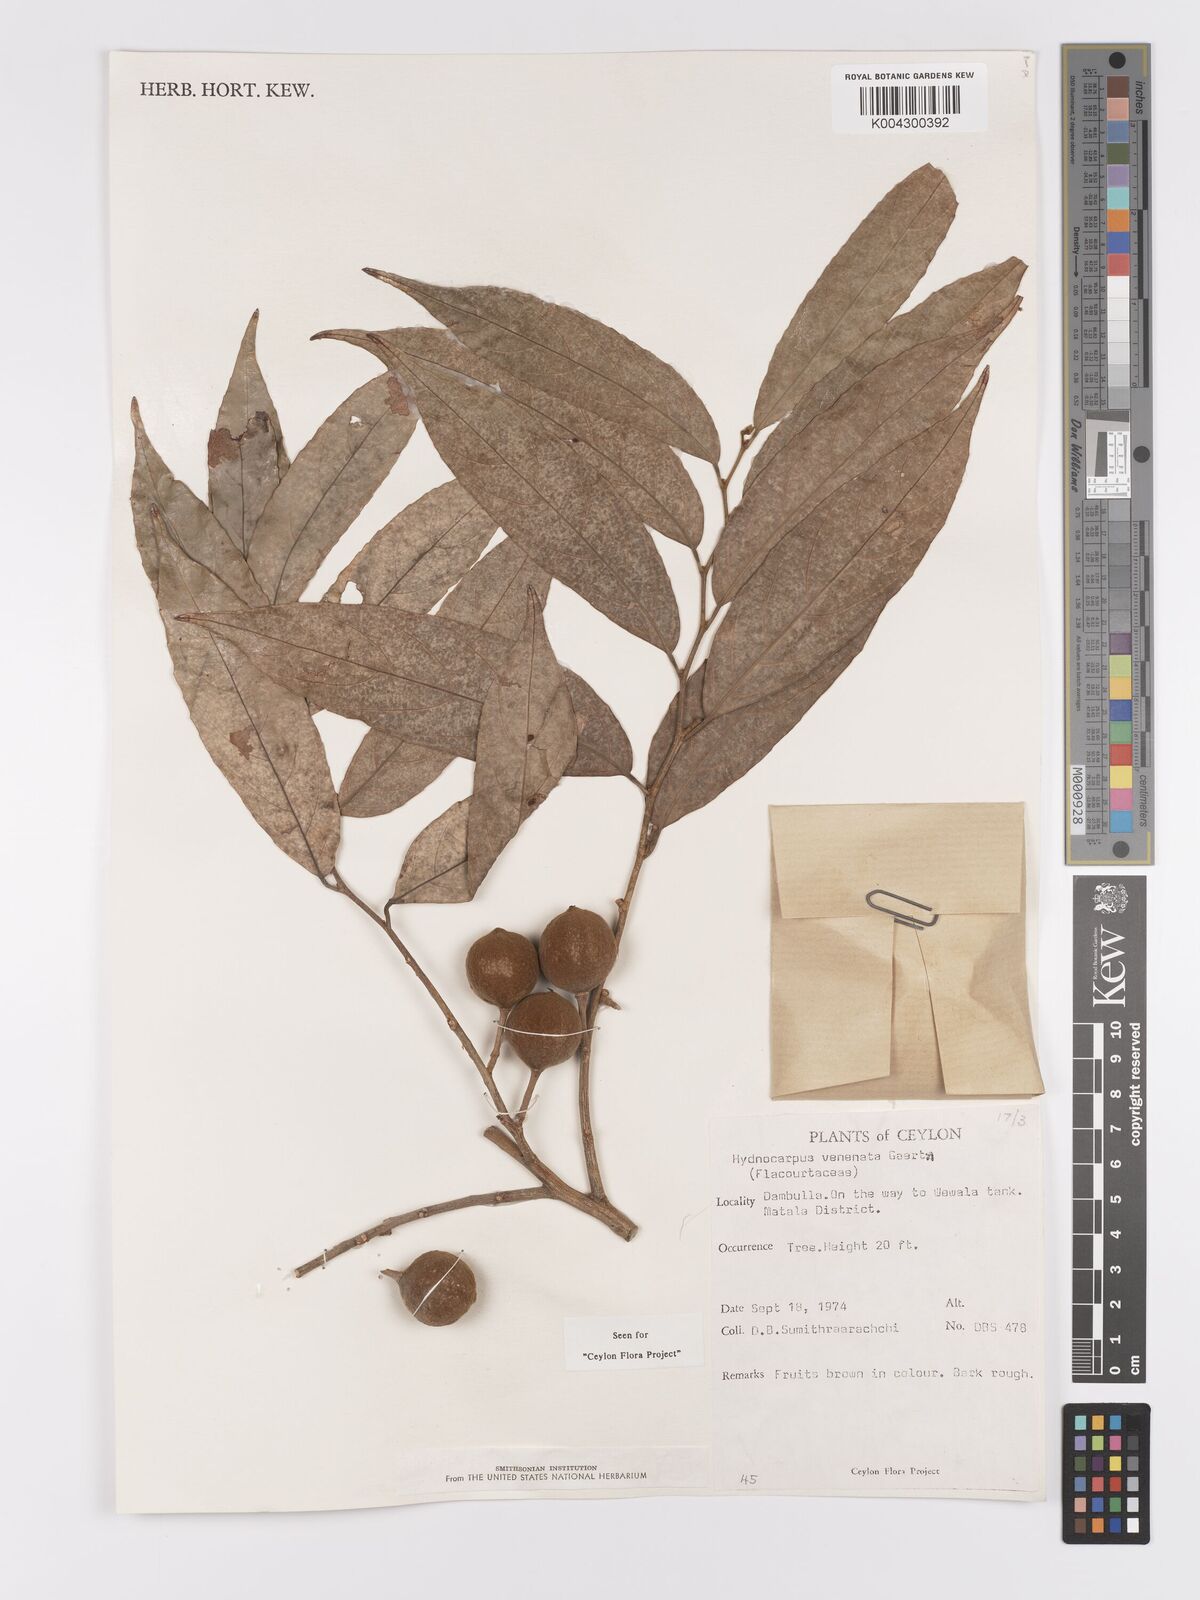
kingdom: Plantae
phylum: Tracheophyta
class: Magnoliopsida
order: Malpighiales
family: Achariaceae
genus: Hydnocarpus
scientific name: Hydnocarpus venenatus
